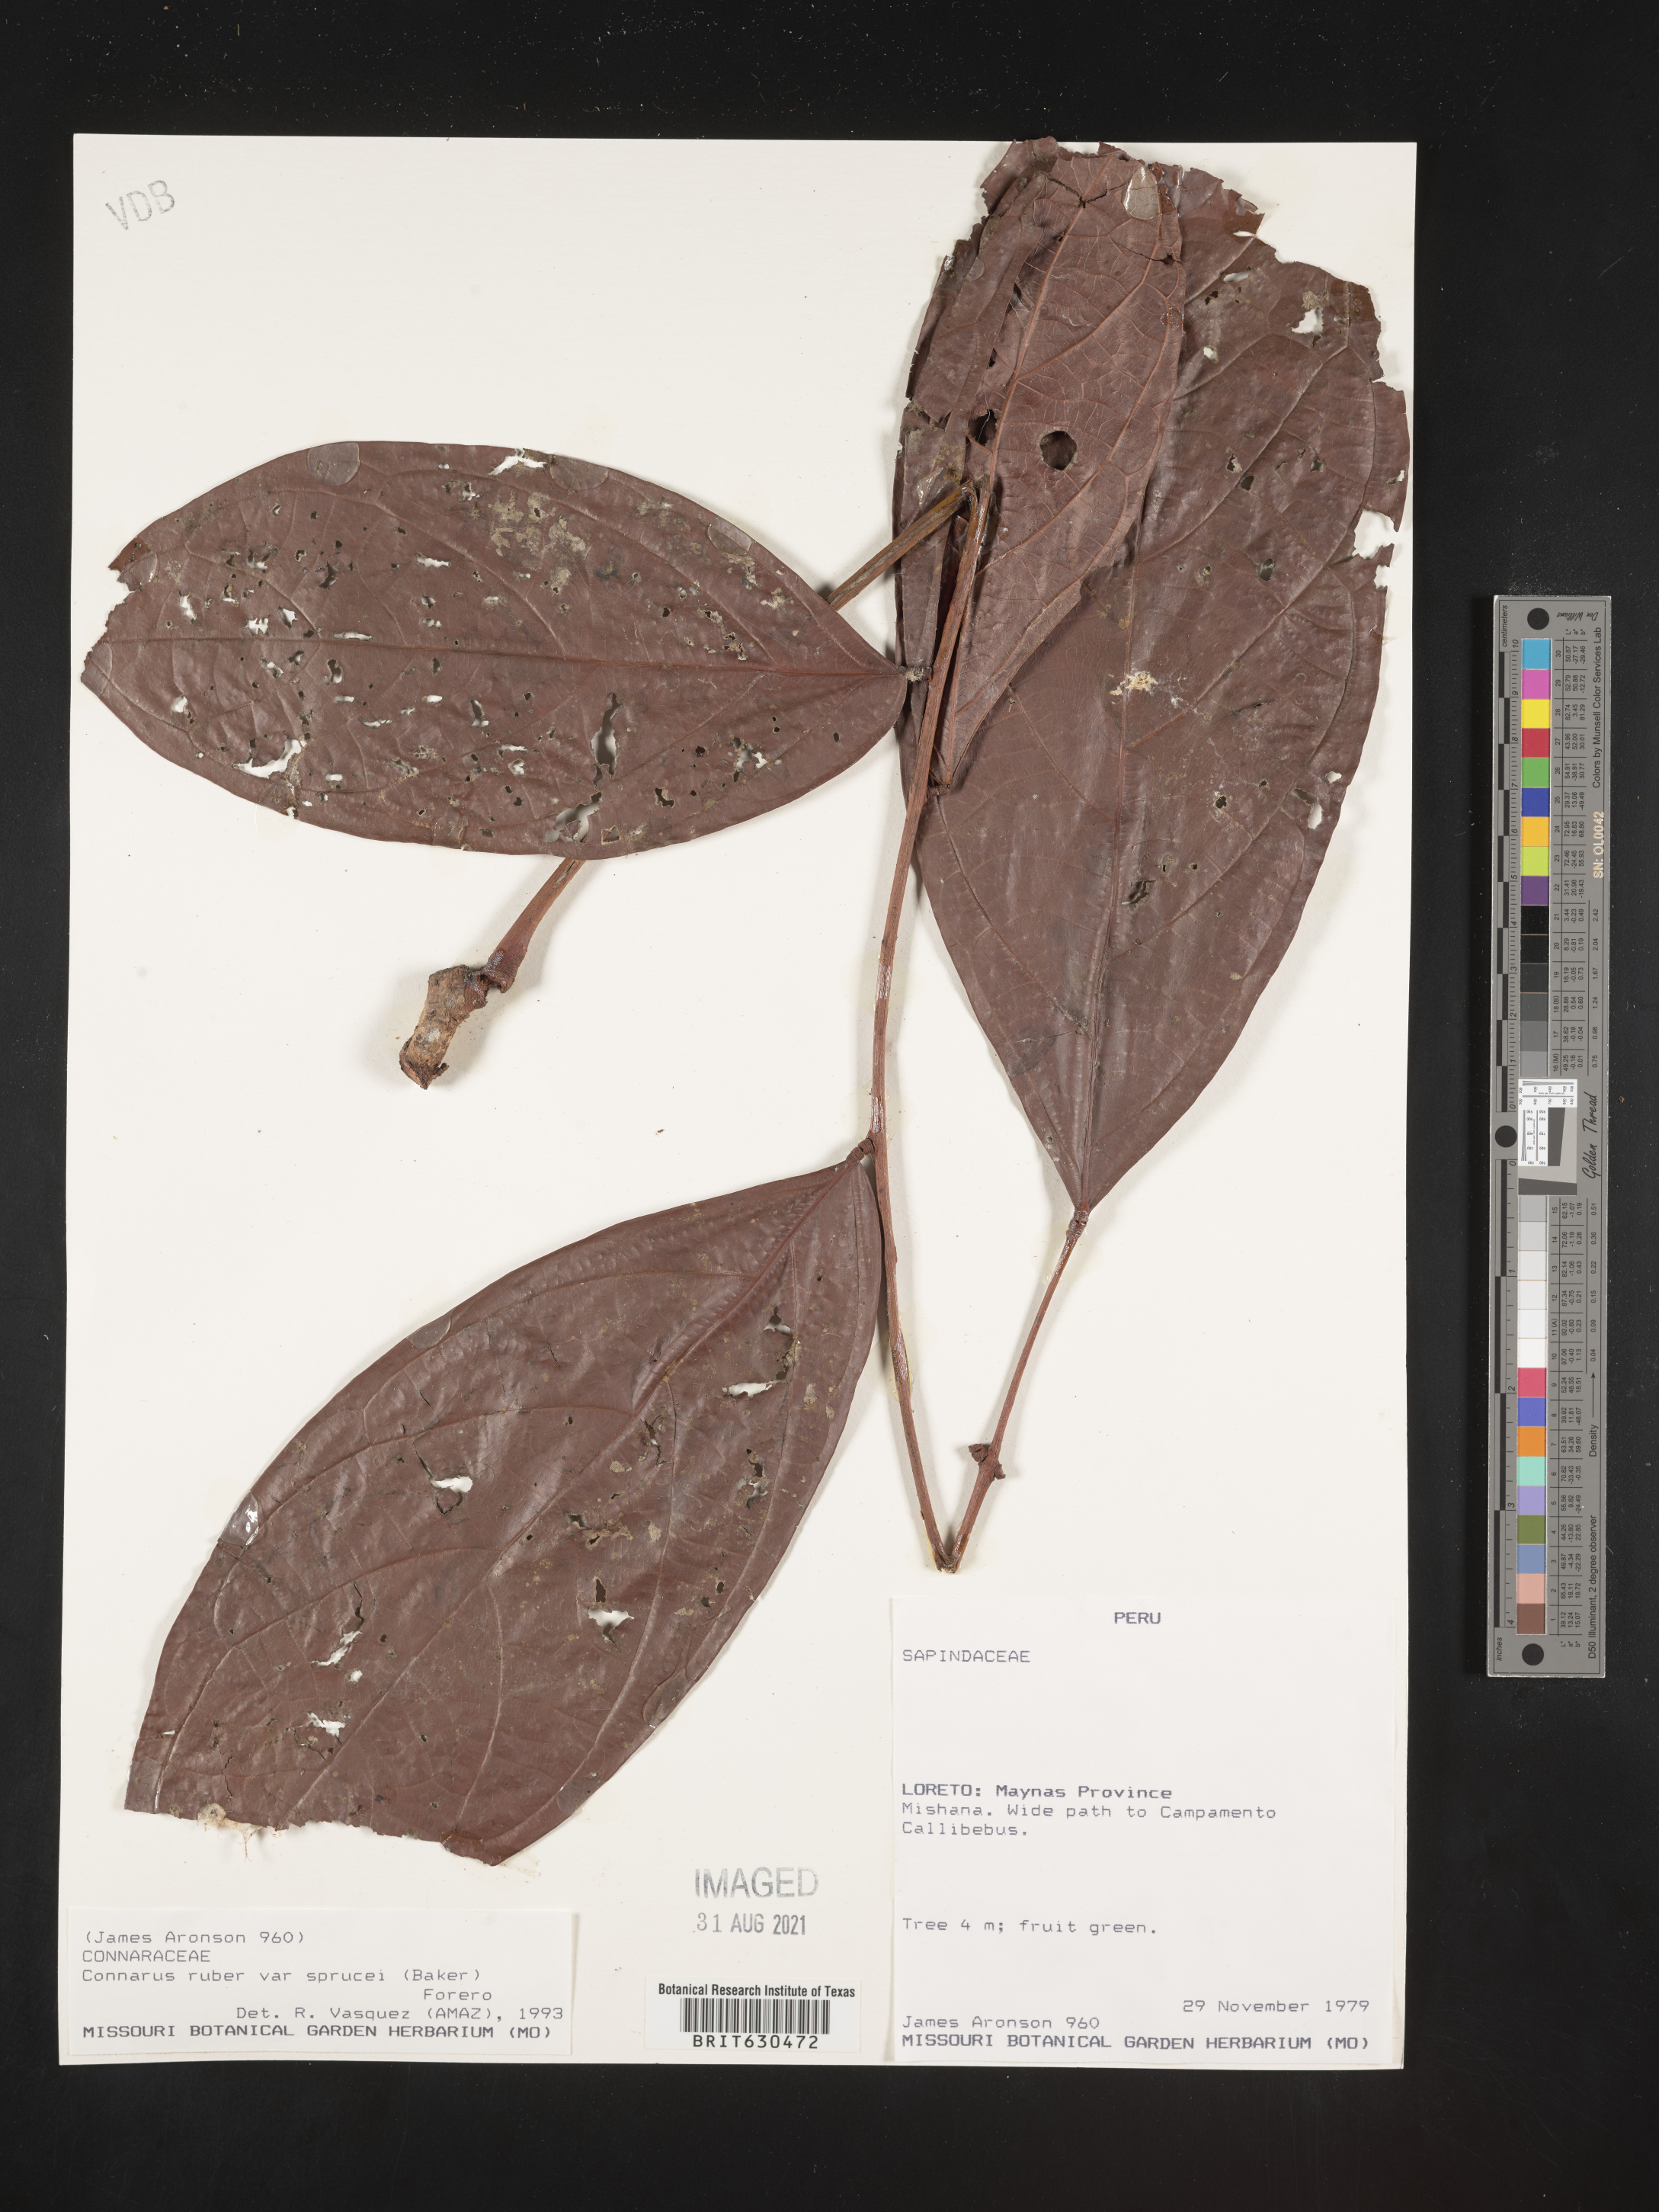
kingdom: Plantae
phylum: Tracheophyta
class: Magnoliopsida
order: Oxalidales
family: Connaraceae
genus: Connarus
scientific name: Connarus ruber
